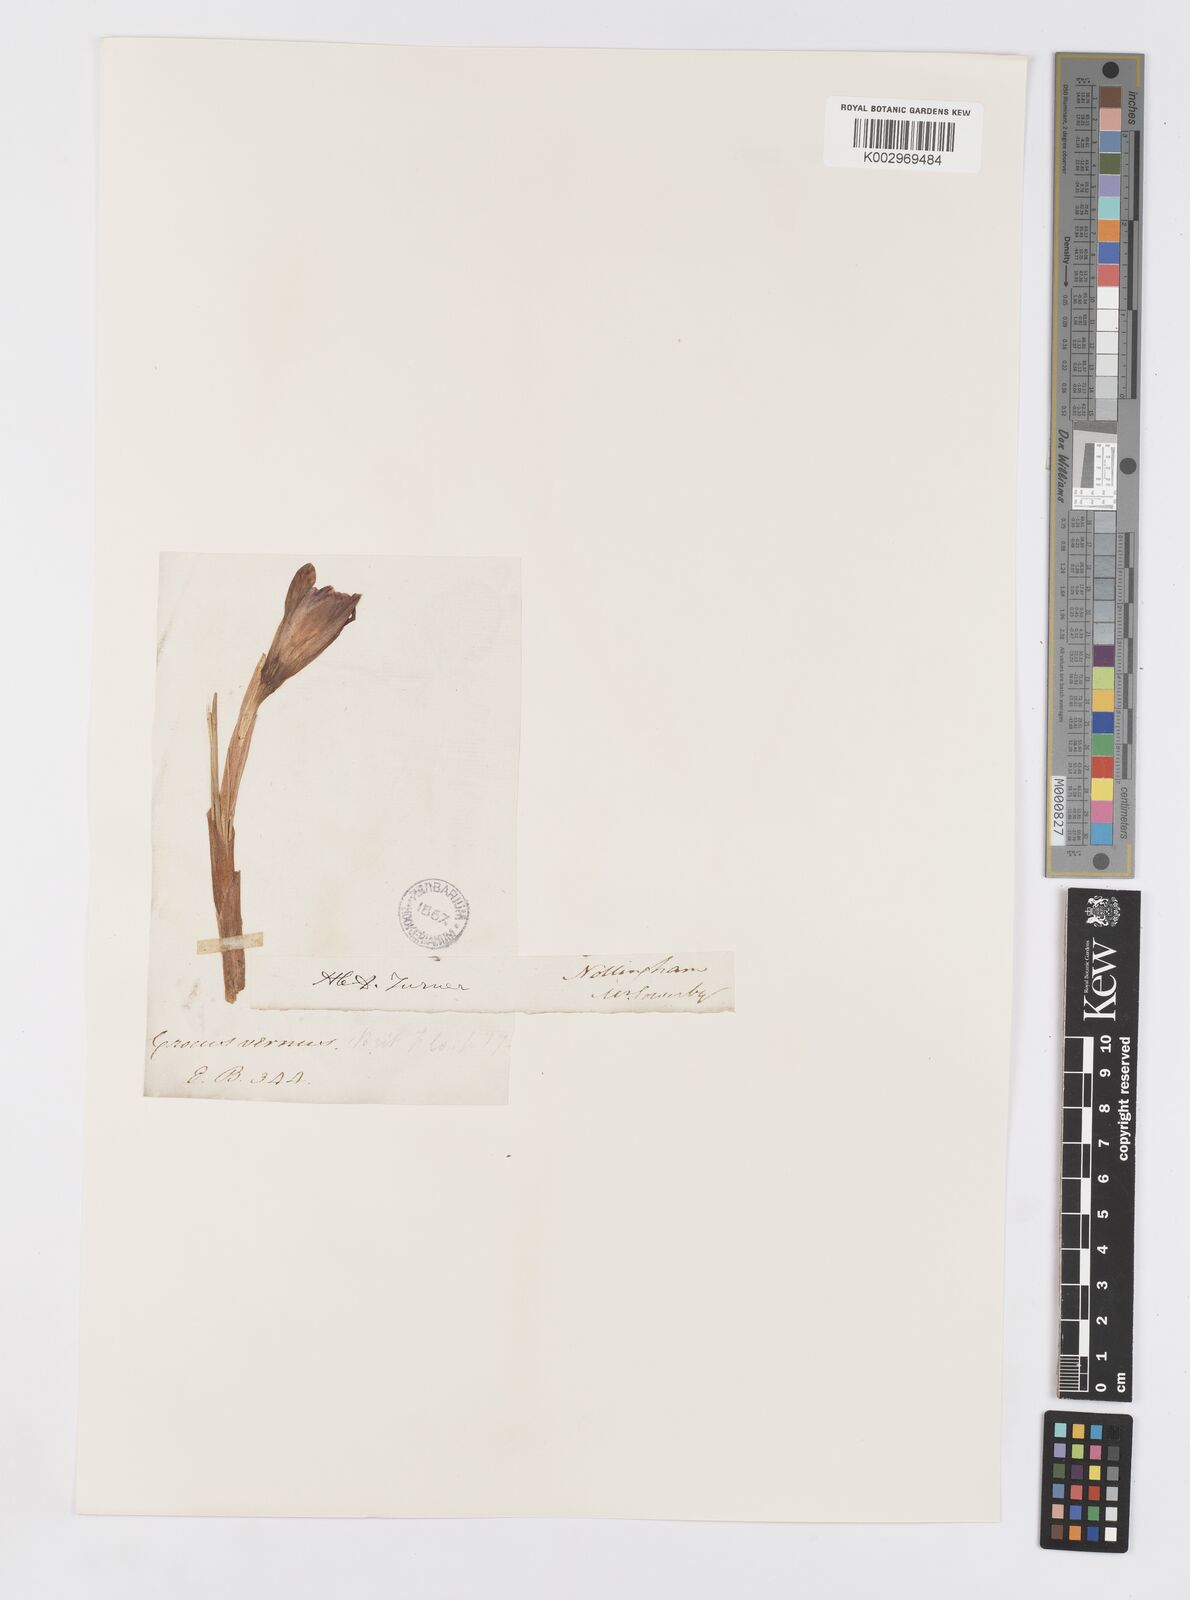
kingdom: Plantae
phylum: Tracheophyta
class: Liliopsida
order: Asparagales
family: Iridaceae
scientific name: Iridaceae
